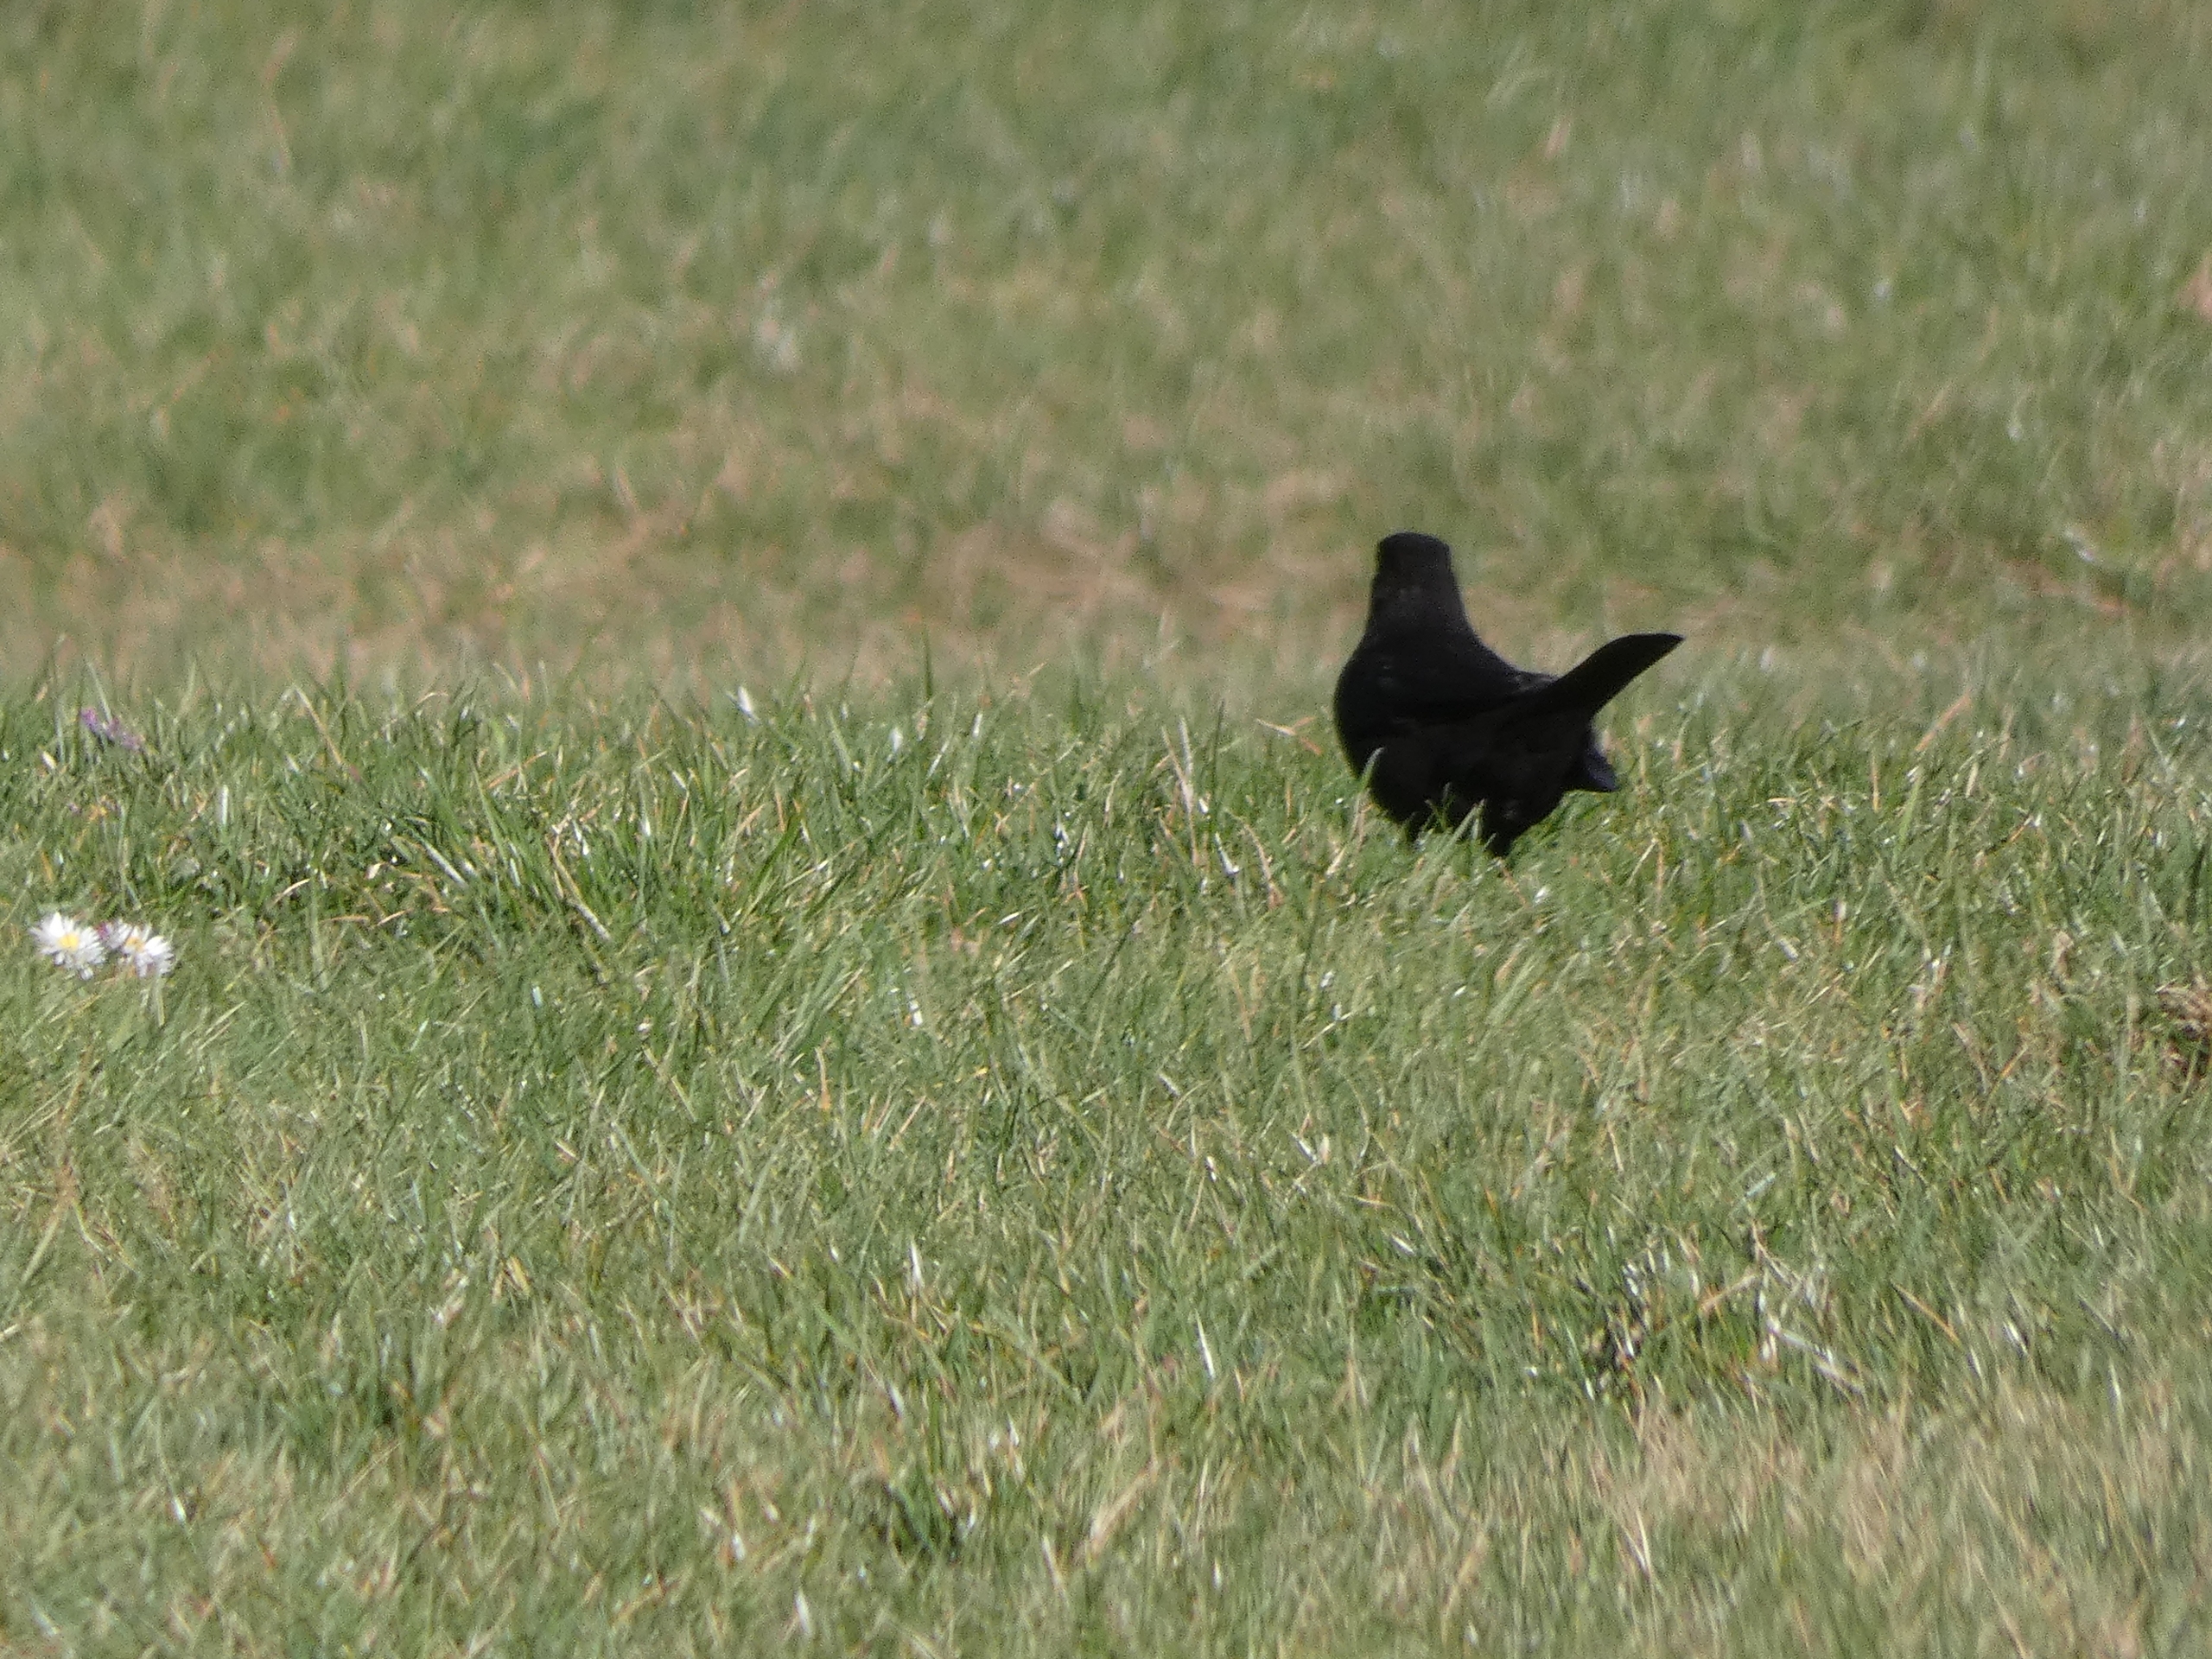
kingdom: Animalia
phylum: Chordata
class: Aves
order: Passeriformes
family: Turdidae
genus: Turdus
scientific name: Turdus merula
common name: Solsort
